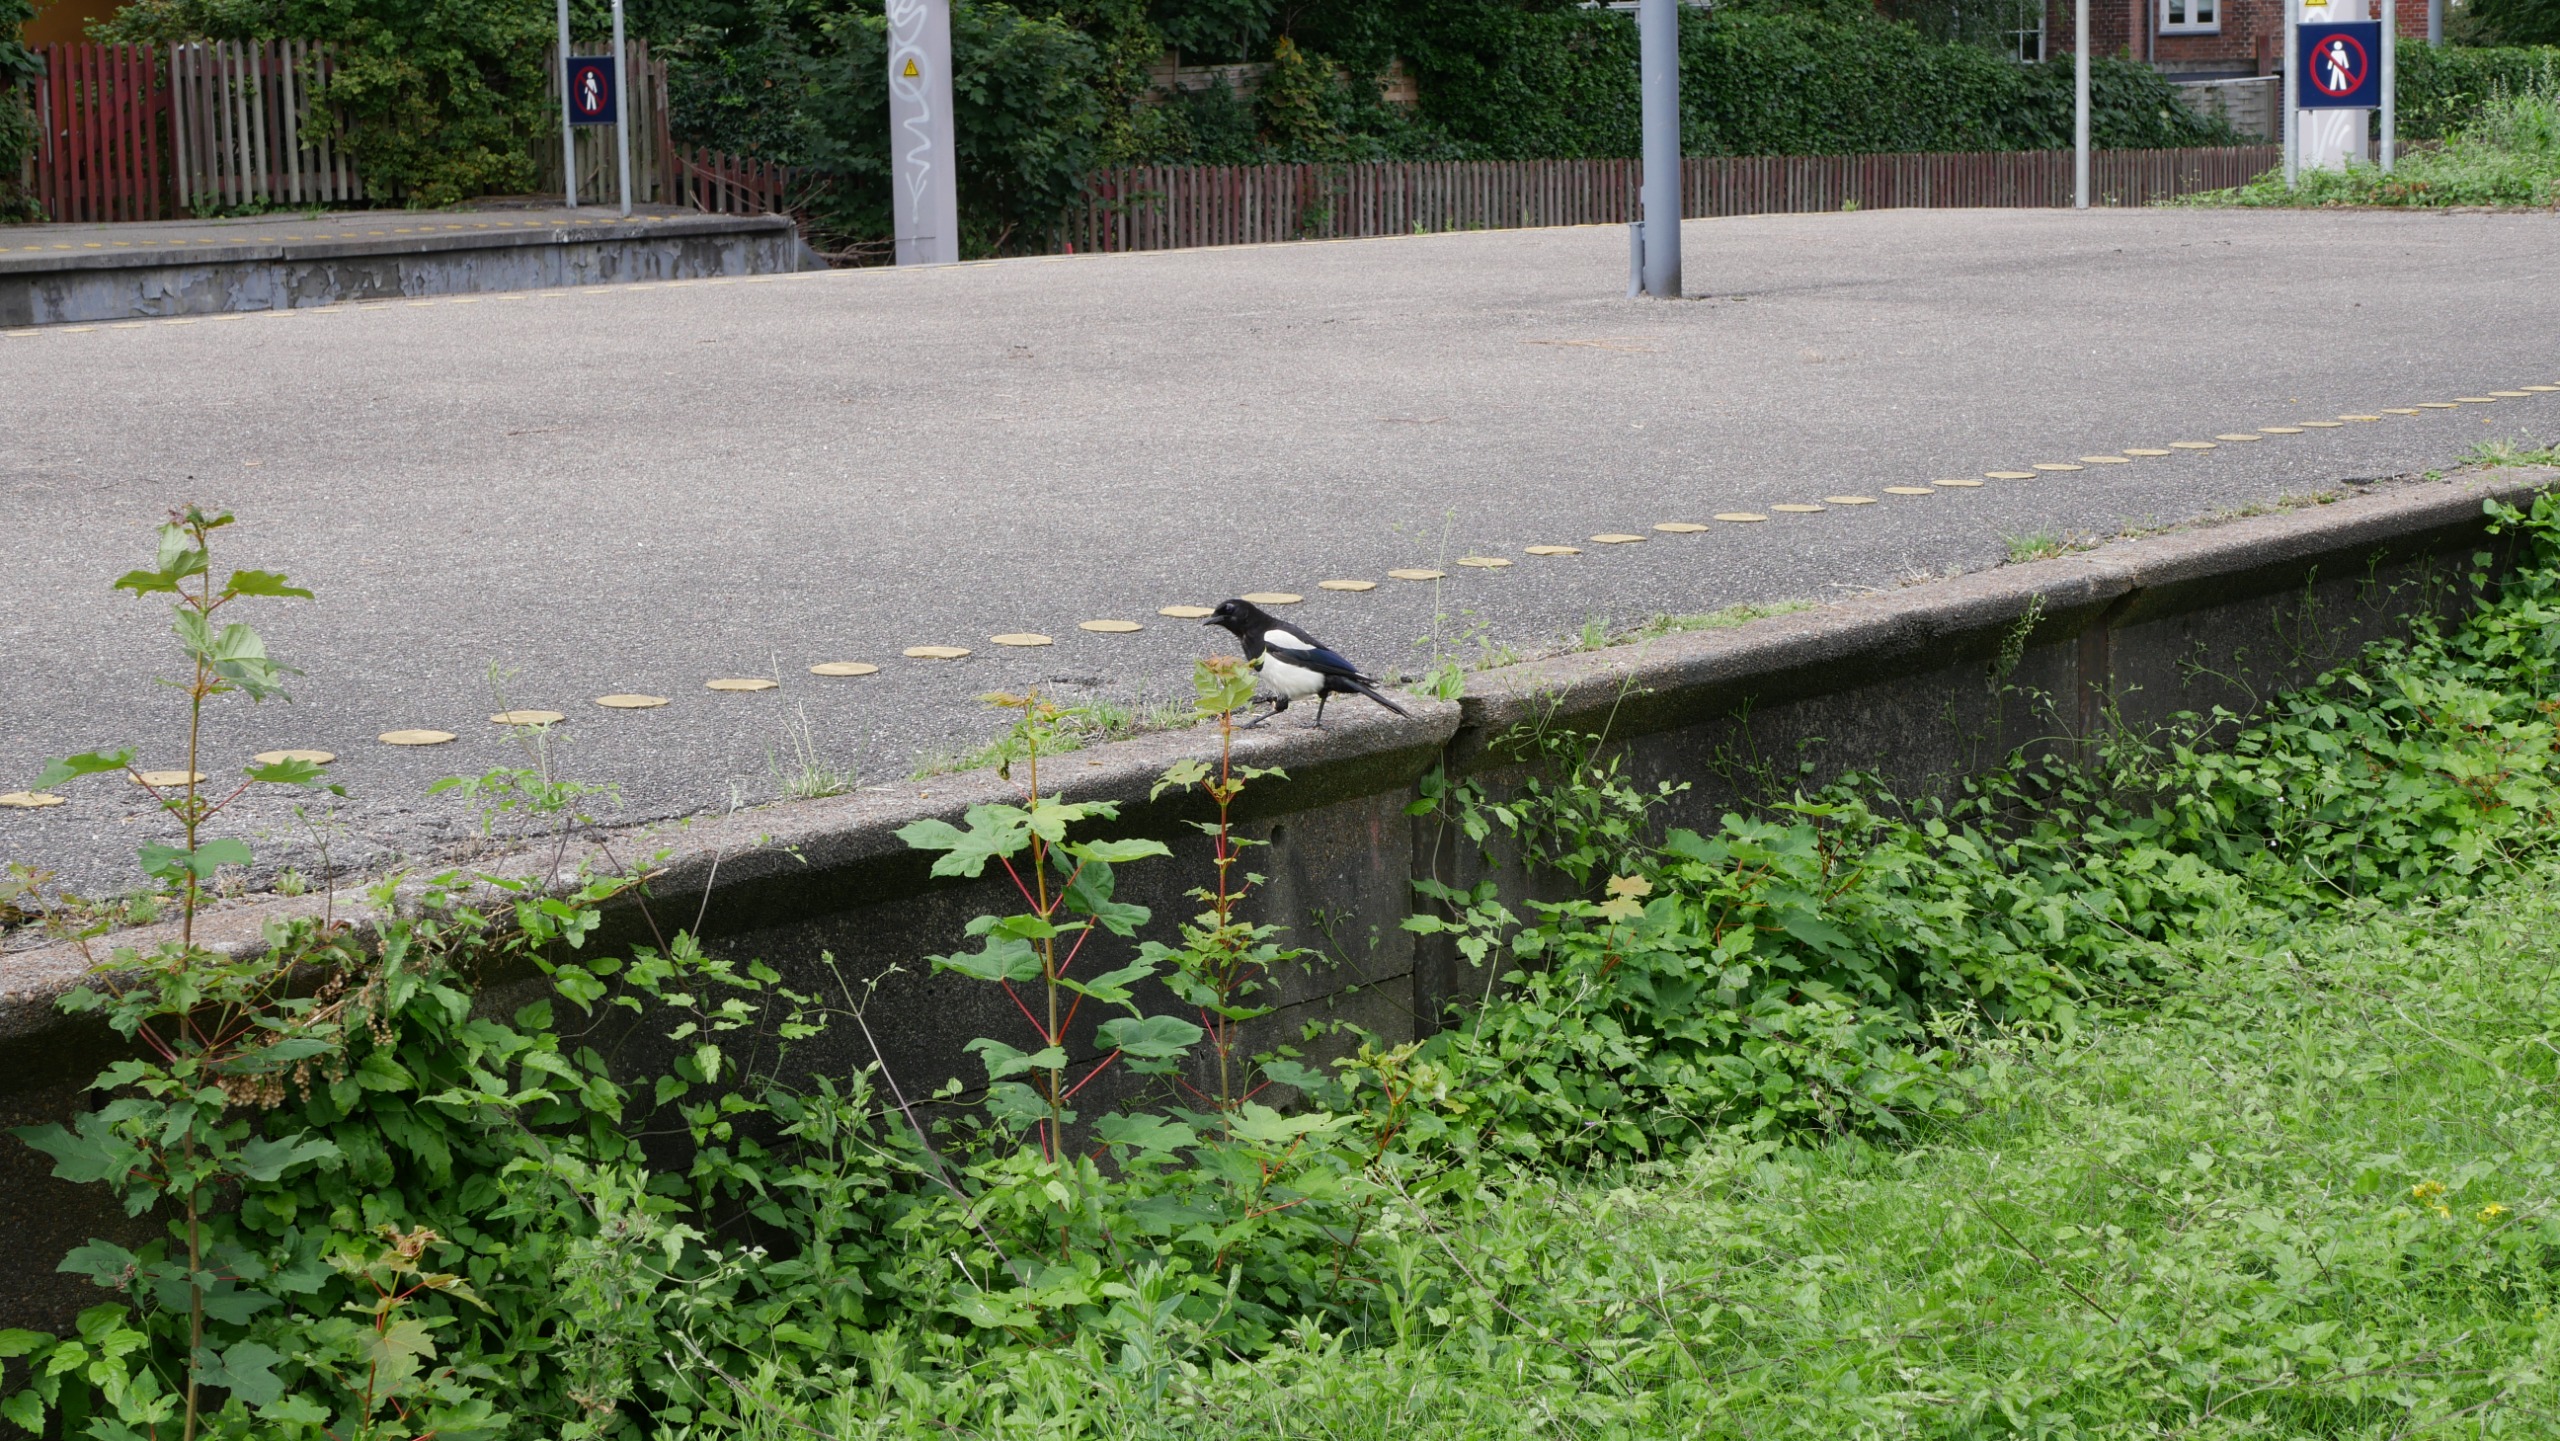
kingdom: Animalia
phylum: Chordata
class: Aves
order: Passeriformes
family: Corvidae
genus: Pica
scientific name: Pica pica
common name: Husskade
